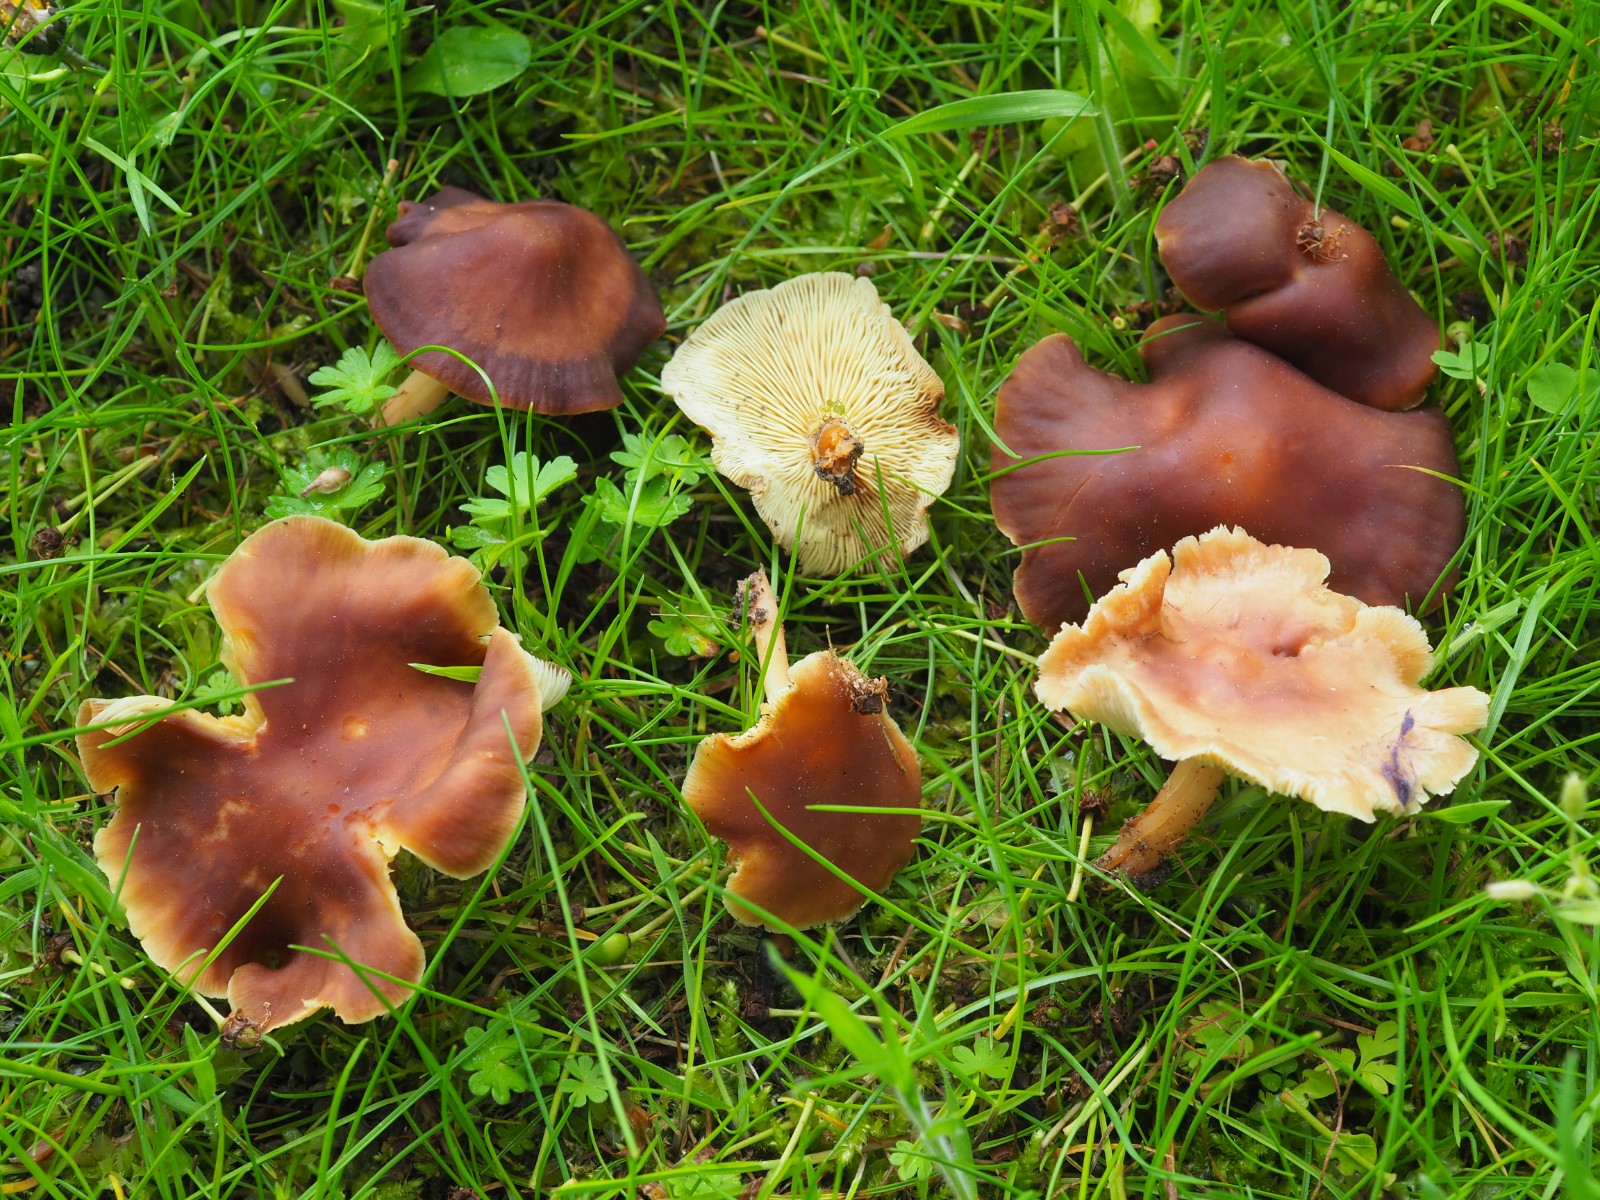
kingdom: Fungi
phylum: Basidiomycota
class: Agaricomycetes
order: Agaricales
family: Omphalotaceae
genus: Gymnopus
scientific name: Gymnopus ocior
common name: mørk fladhat
